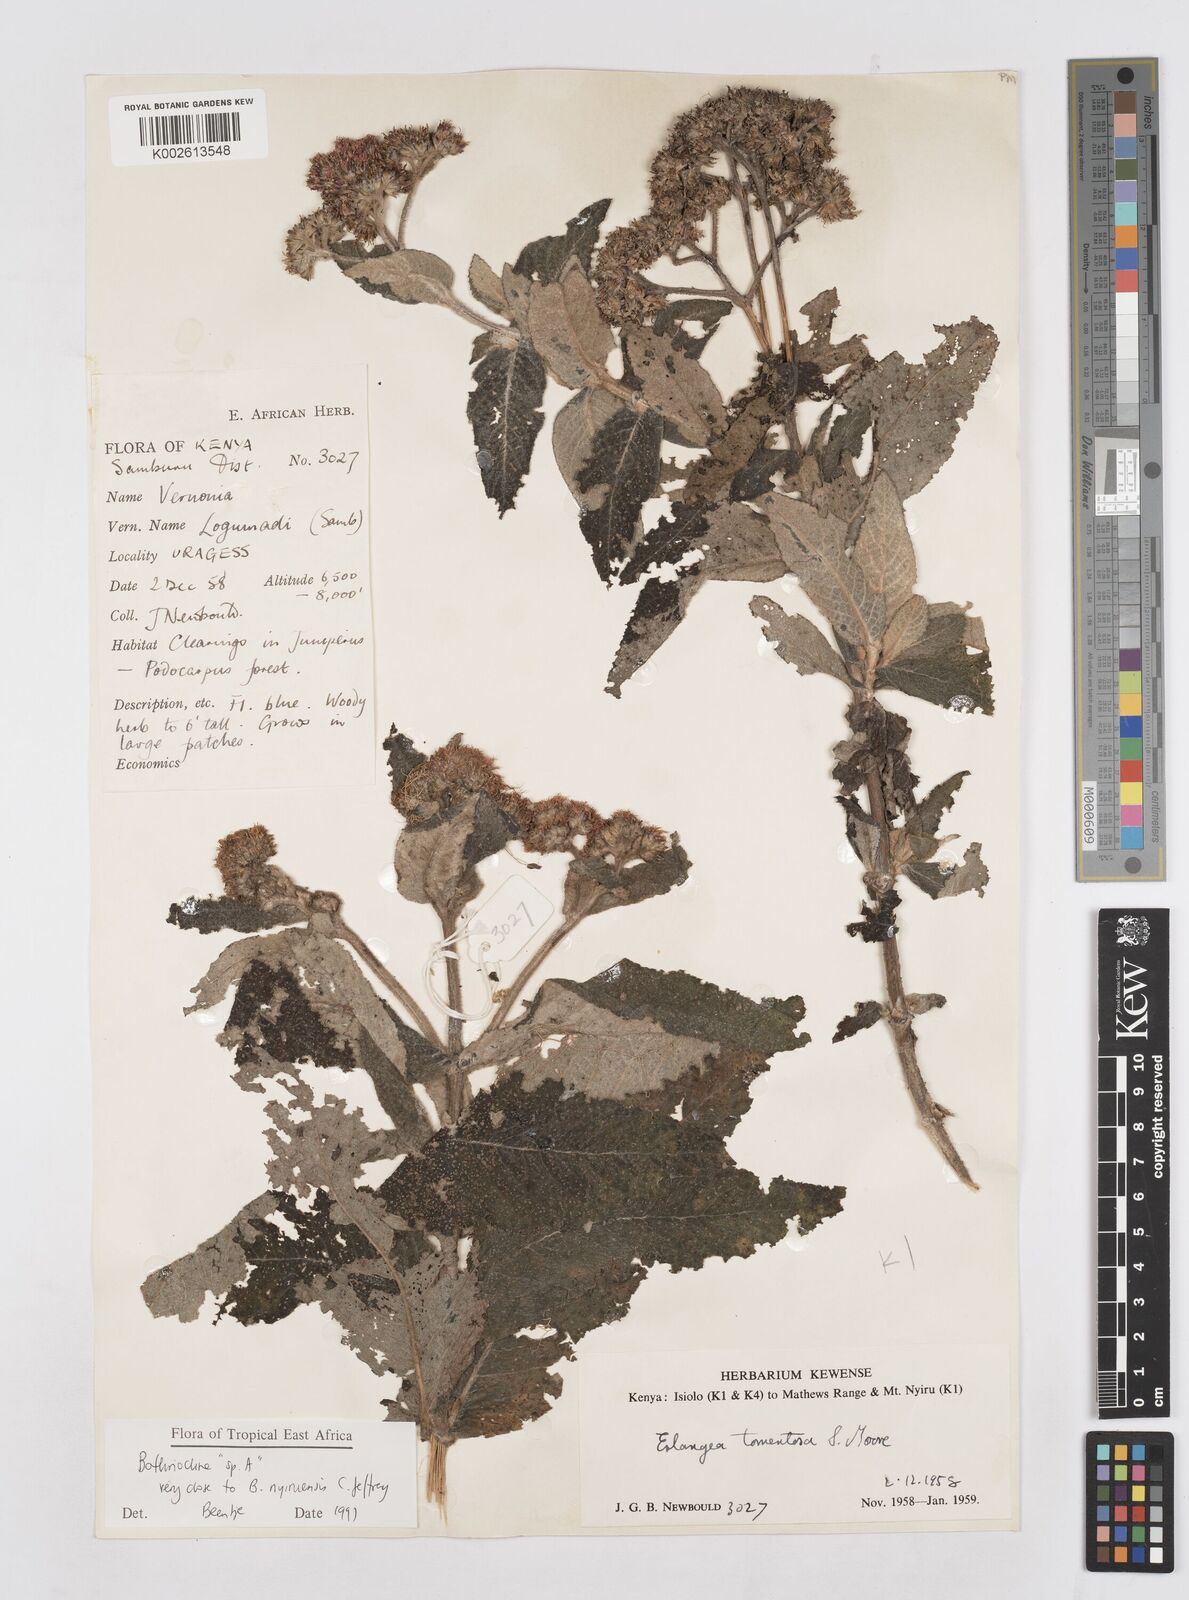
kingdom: Plantae
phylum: Tracheophyta
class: Magnoliopsida
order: Asterales
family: Asteraceae
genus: Bothriocline
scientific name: Bothriocline nyiruensis
